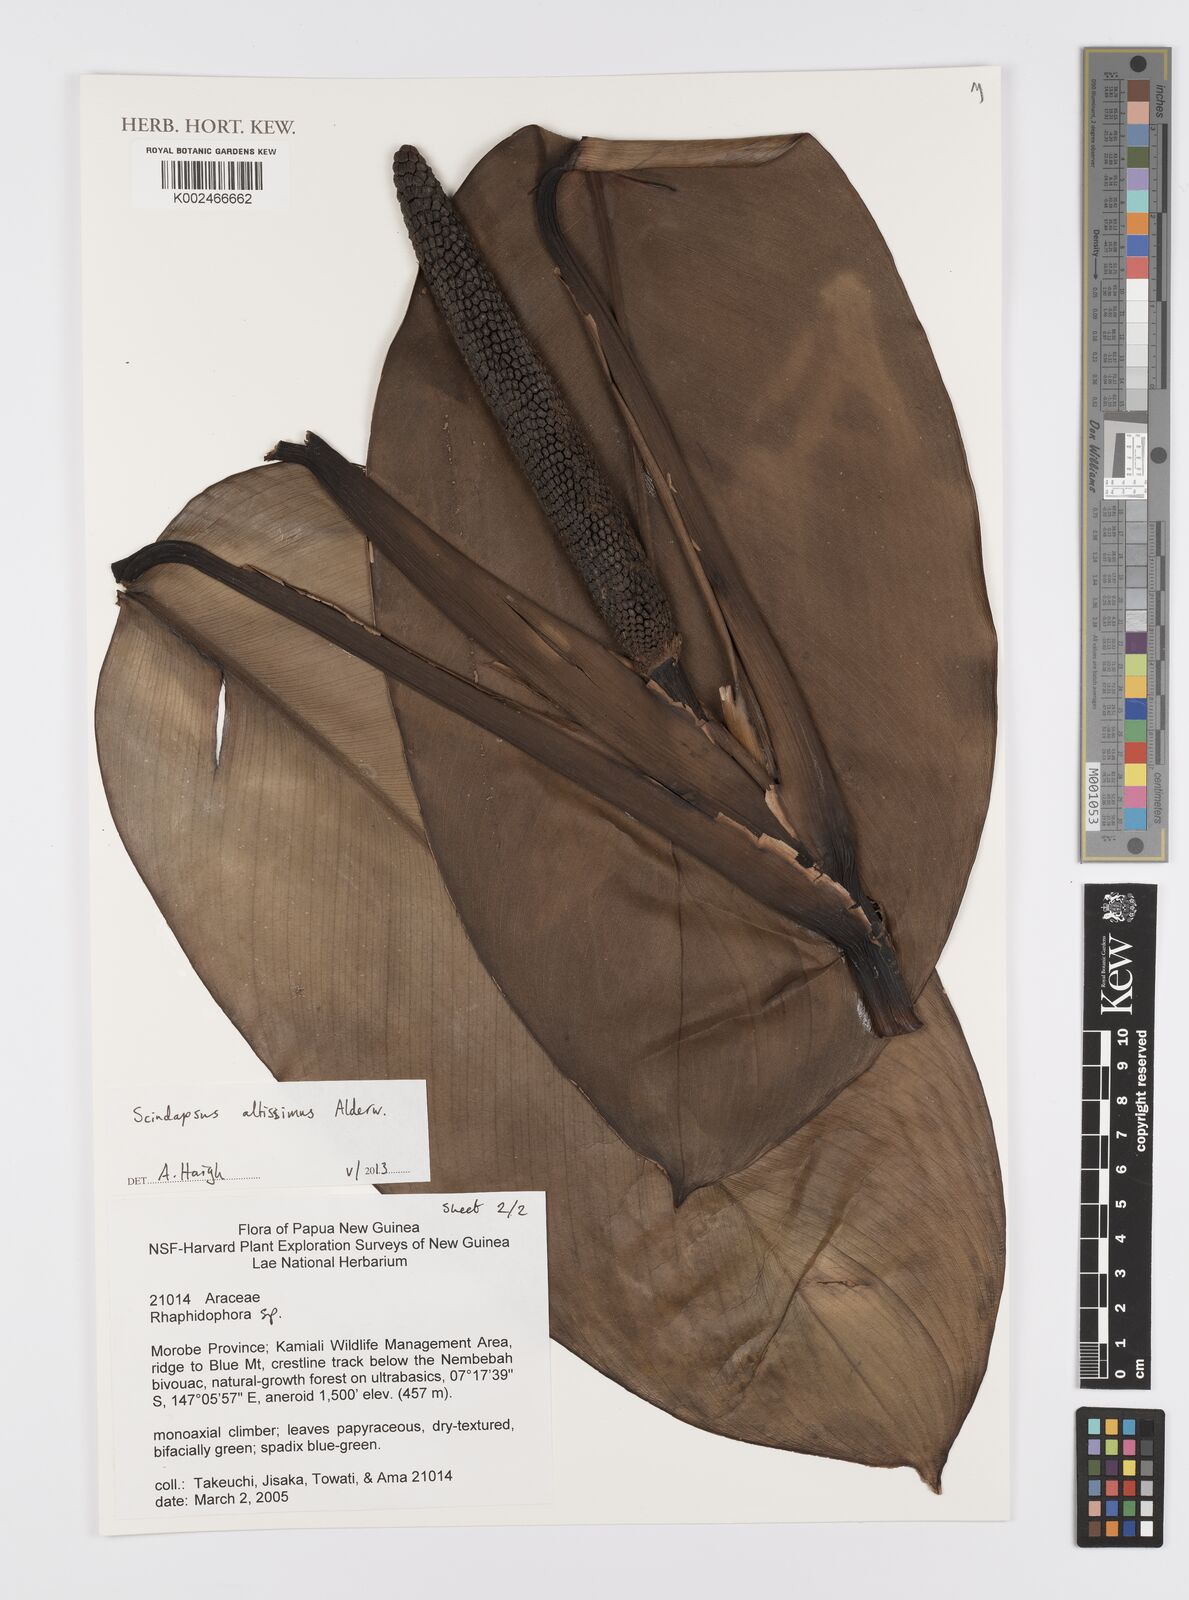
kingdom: Plantae
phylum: Tracheophyta
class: Liliopsida
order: Alismatales
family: Araceae
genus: Scindapsus
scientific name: Scindapsus altissimus
